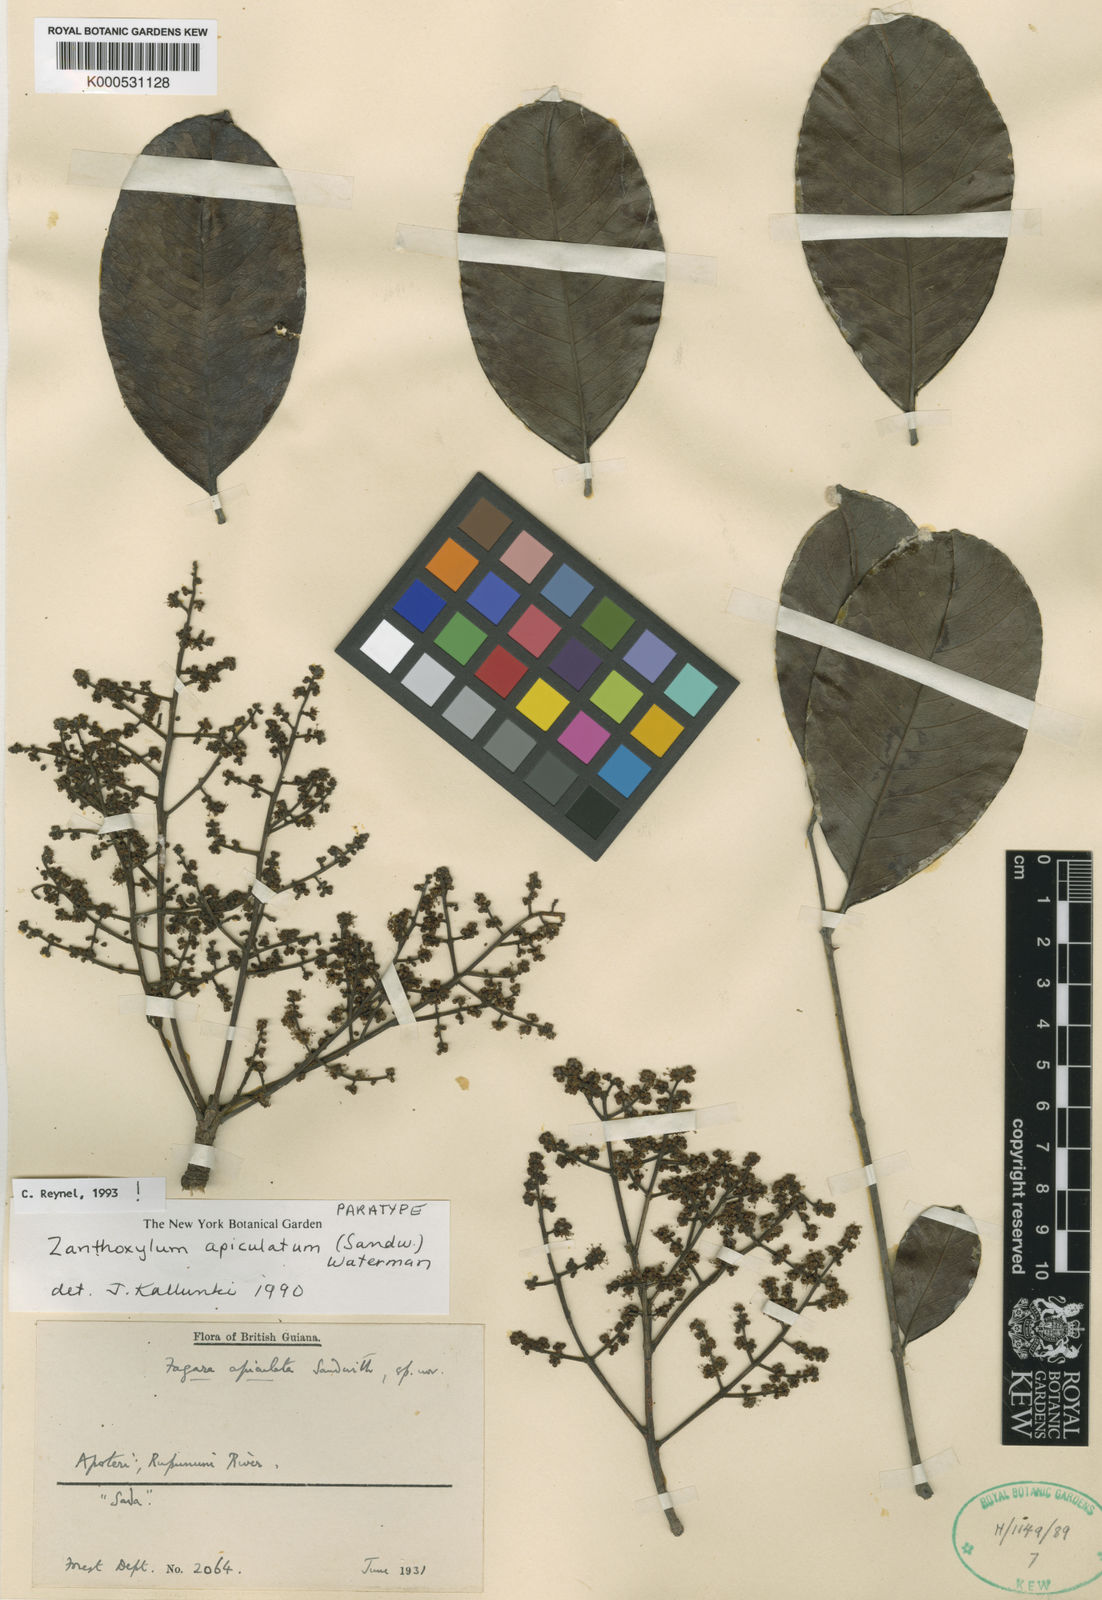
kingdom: Plantae
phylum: Tracheophyta
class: Magnoliopsida
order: Sapindales
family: Rutaceae
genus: Zanthoxylum
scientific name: Zanthoxylum apiculatum
